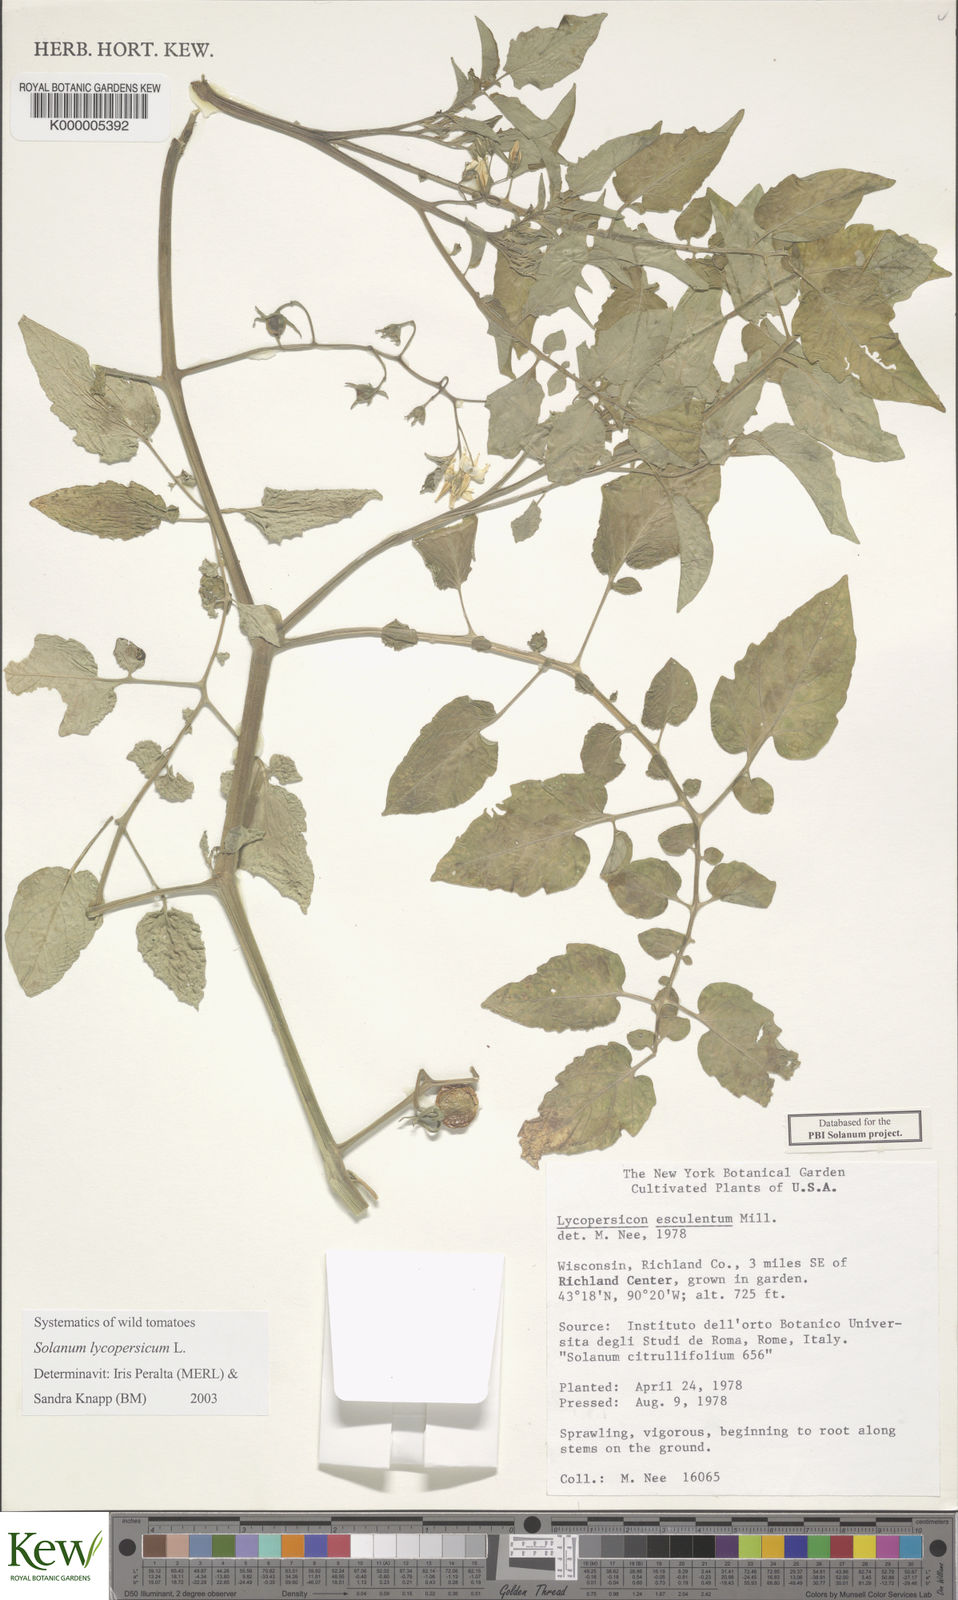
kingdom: Plantae
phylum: Tracheophyta
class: Magnoliopsida
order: Solanales
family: Solanaceae
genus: Solanum
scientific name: Solanum lycopersicum
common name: Garden tomato
